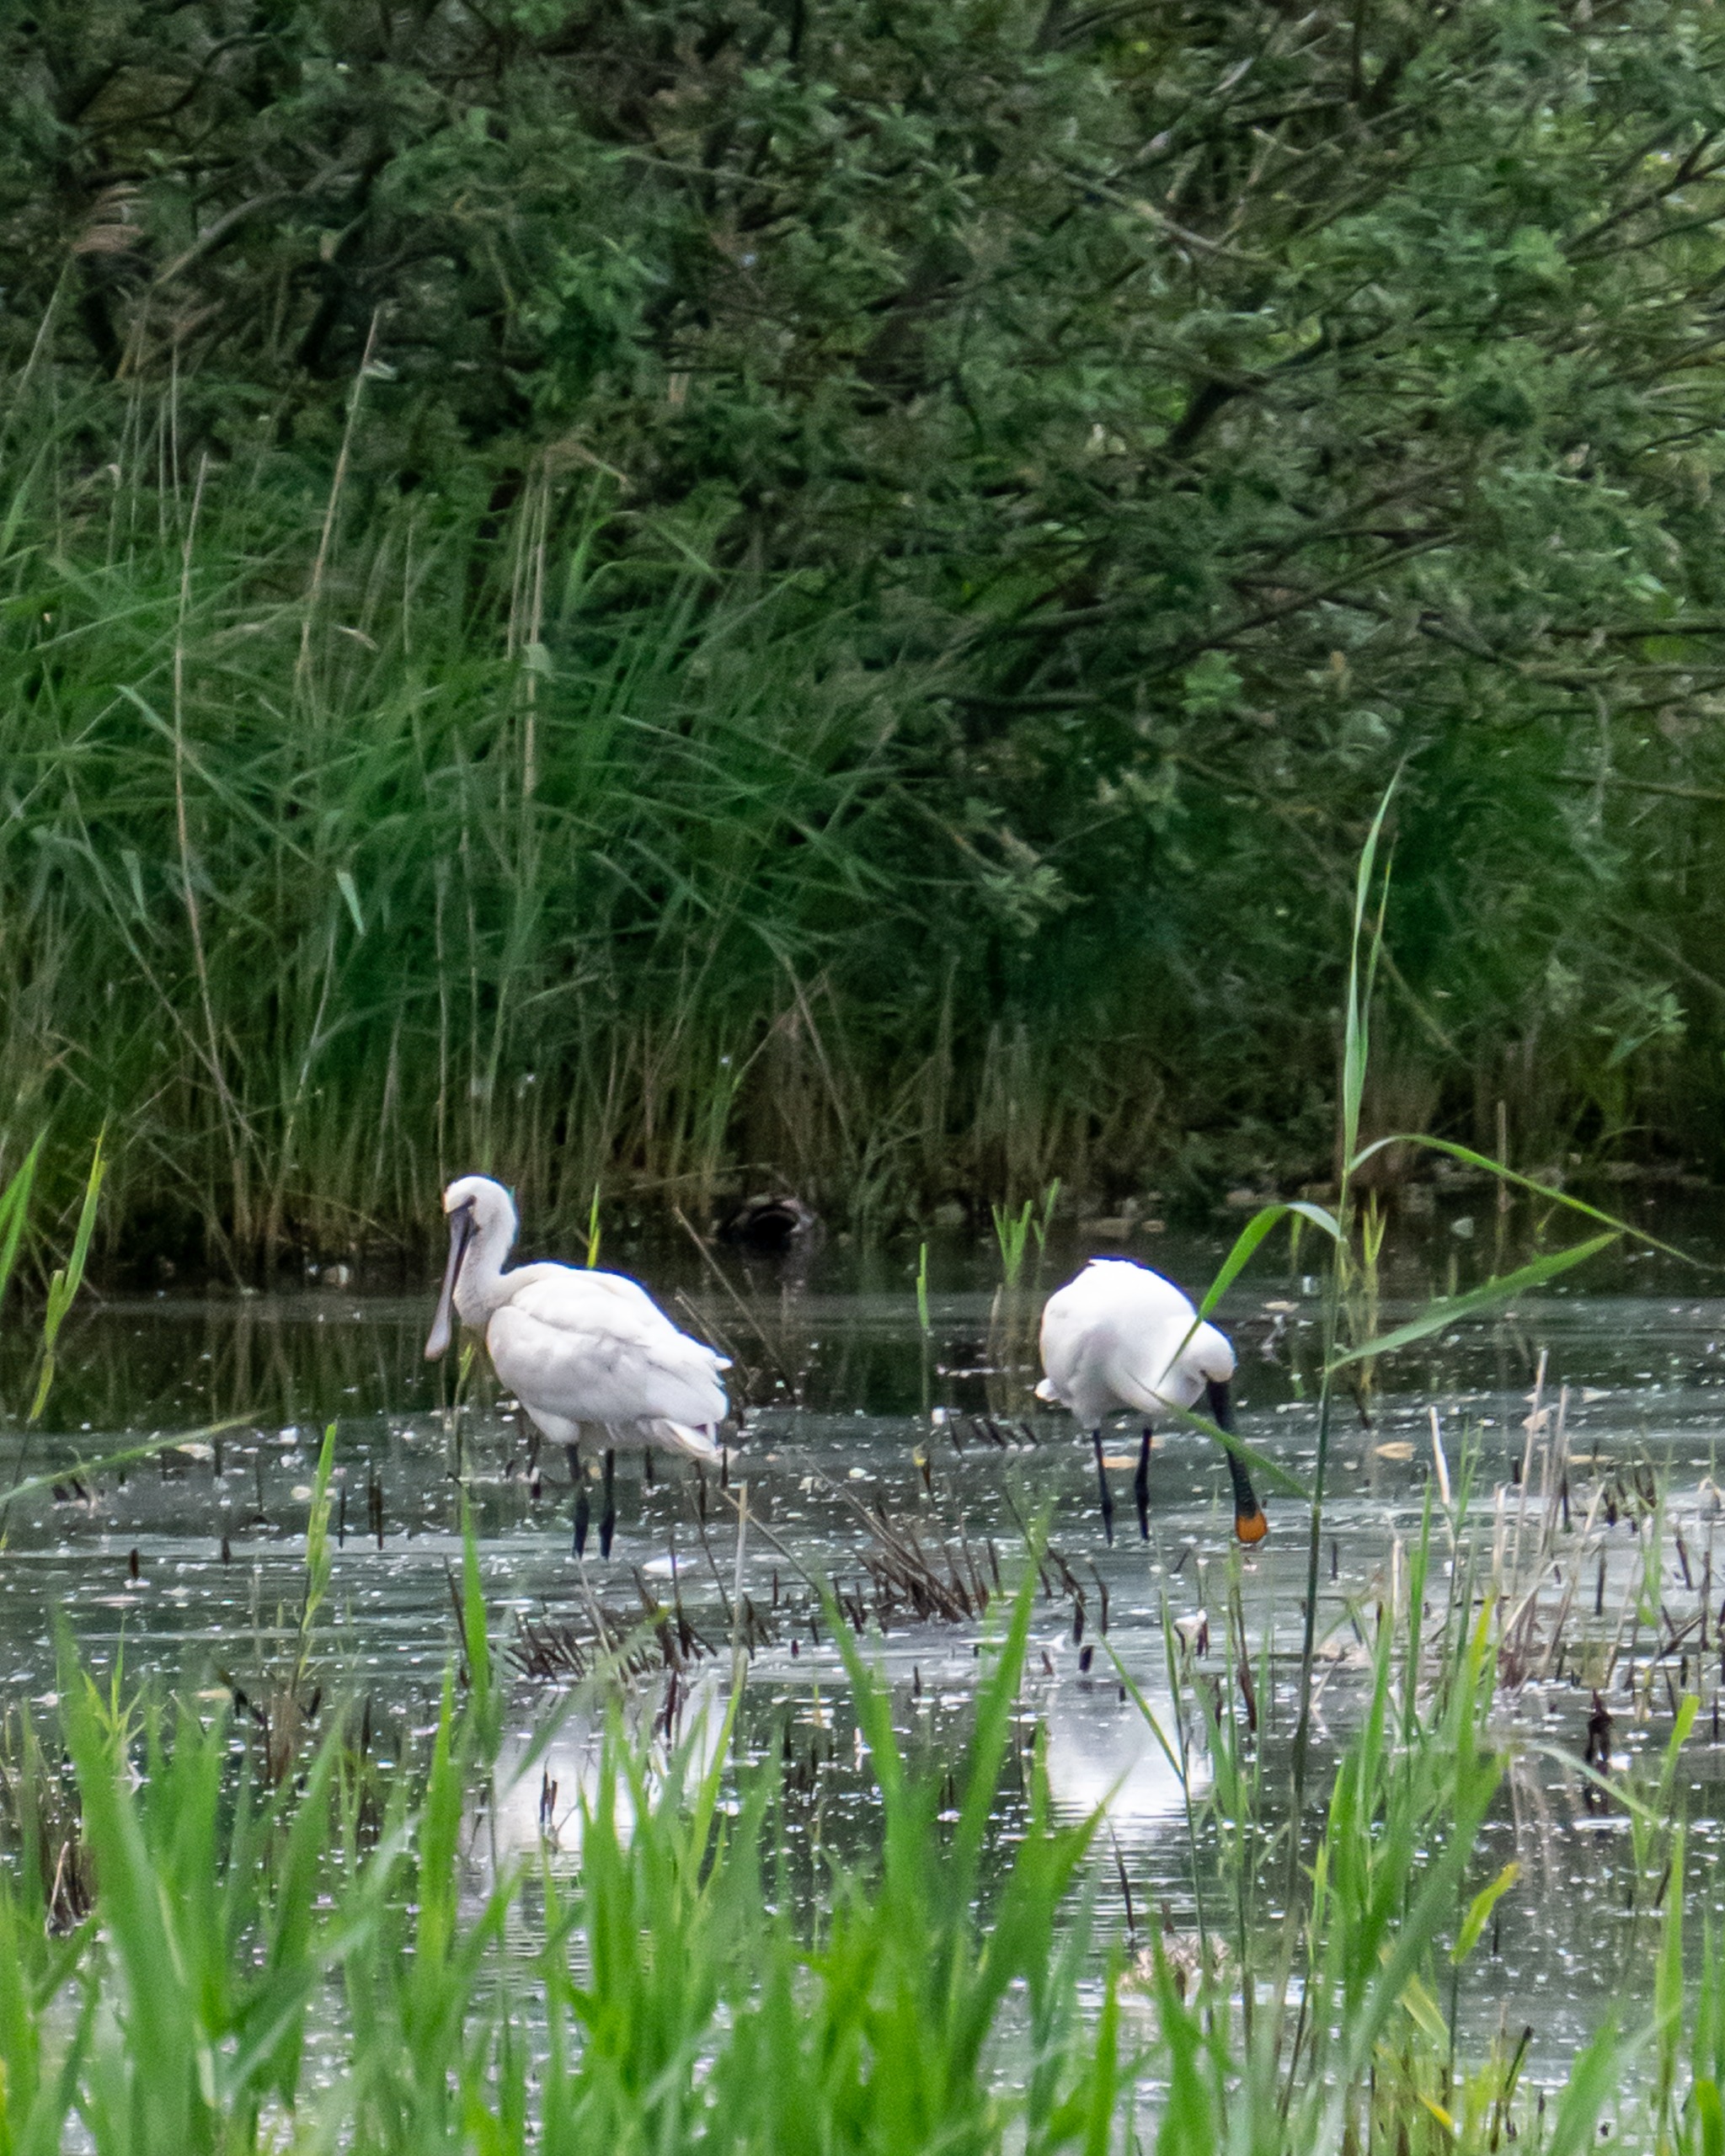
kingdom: Animalia
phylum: Chordata
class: Aves
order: Pelecaniformes
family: Threskiornithidae
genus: Platalea
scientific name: Platalea leucorodia
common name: Skestork
